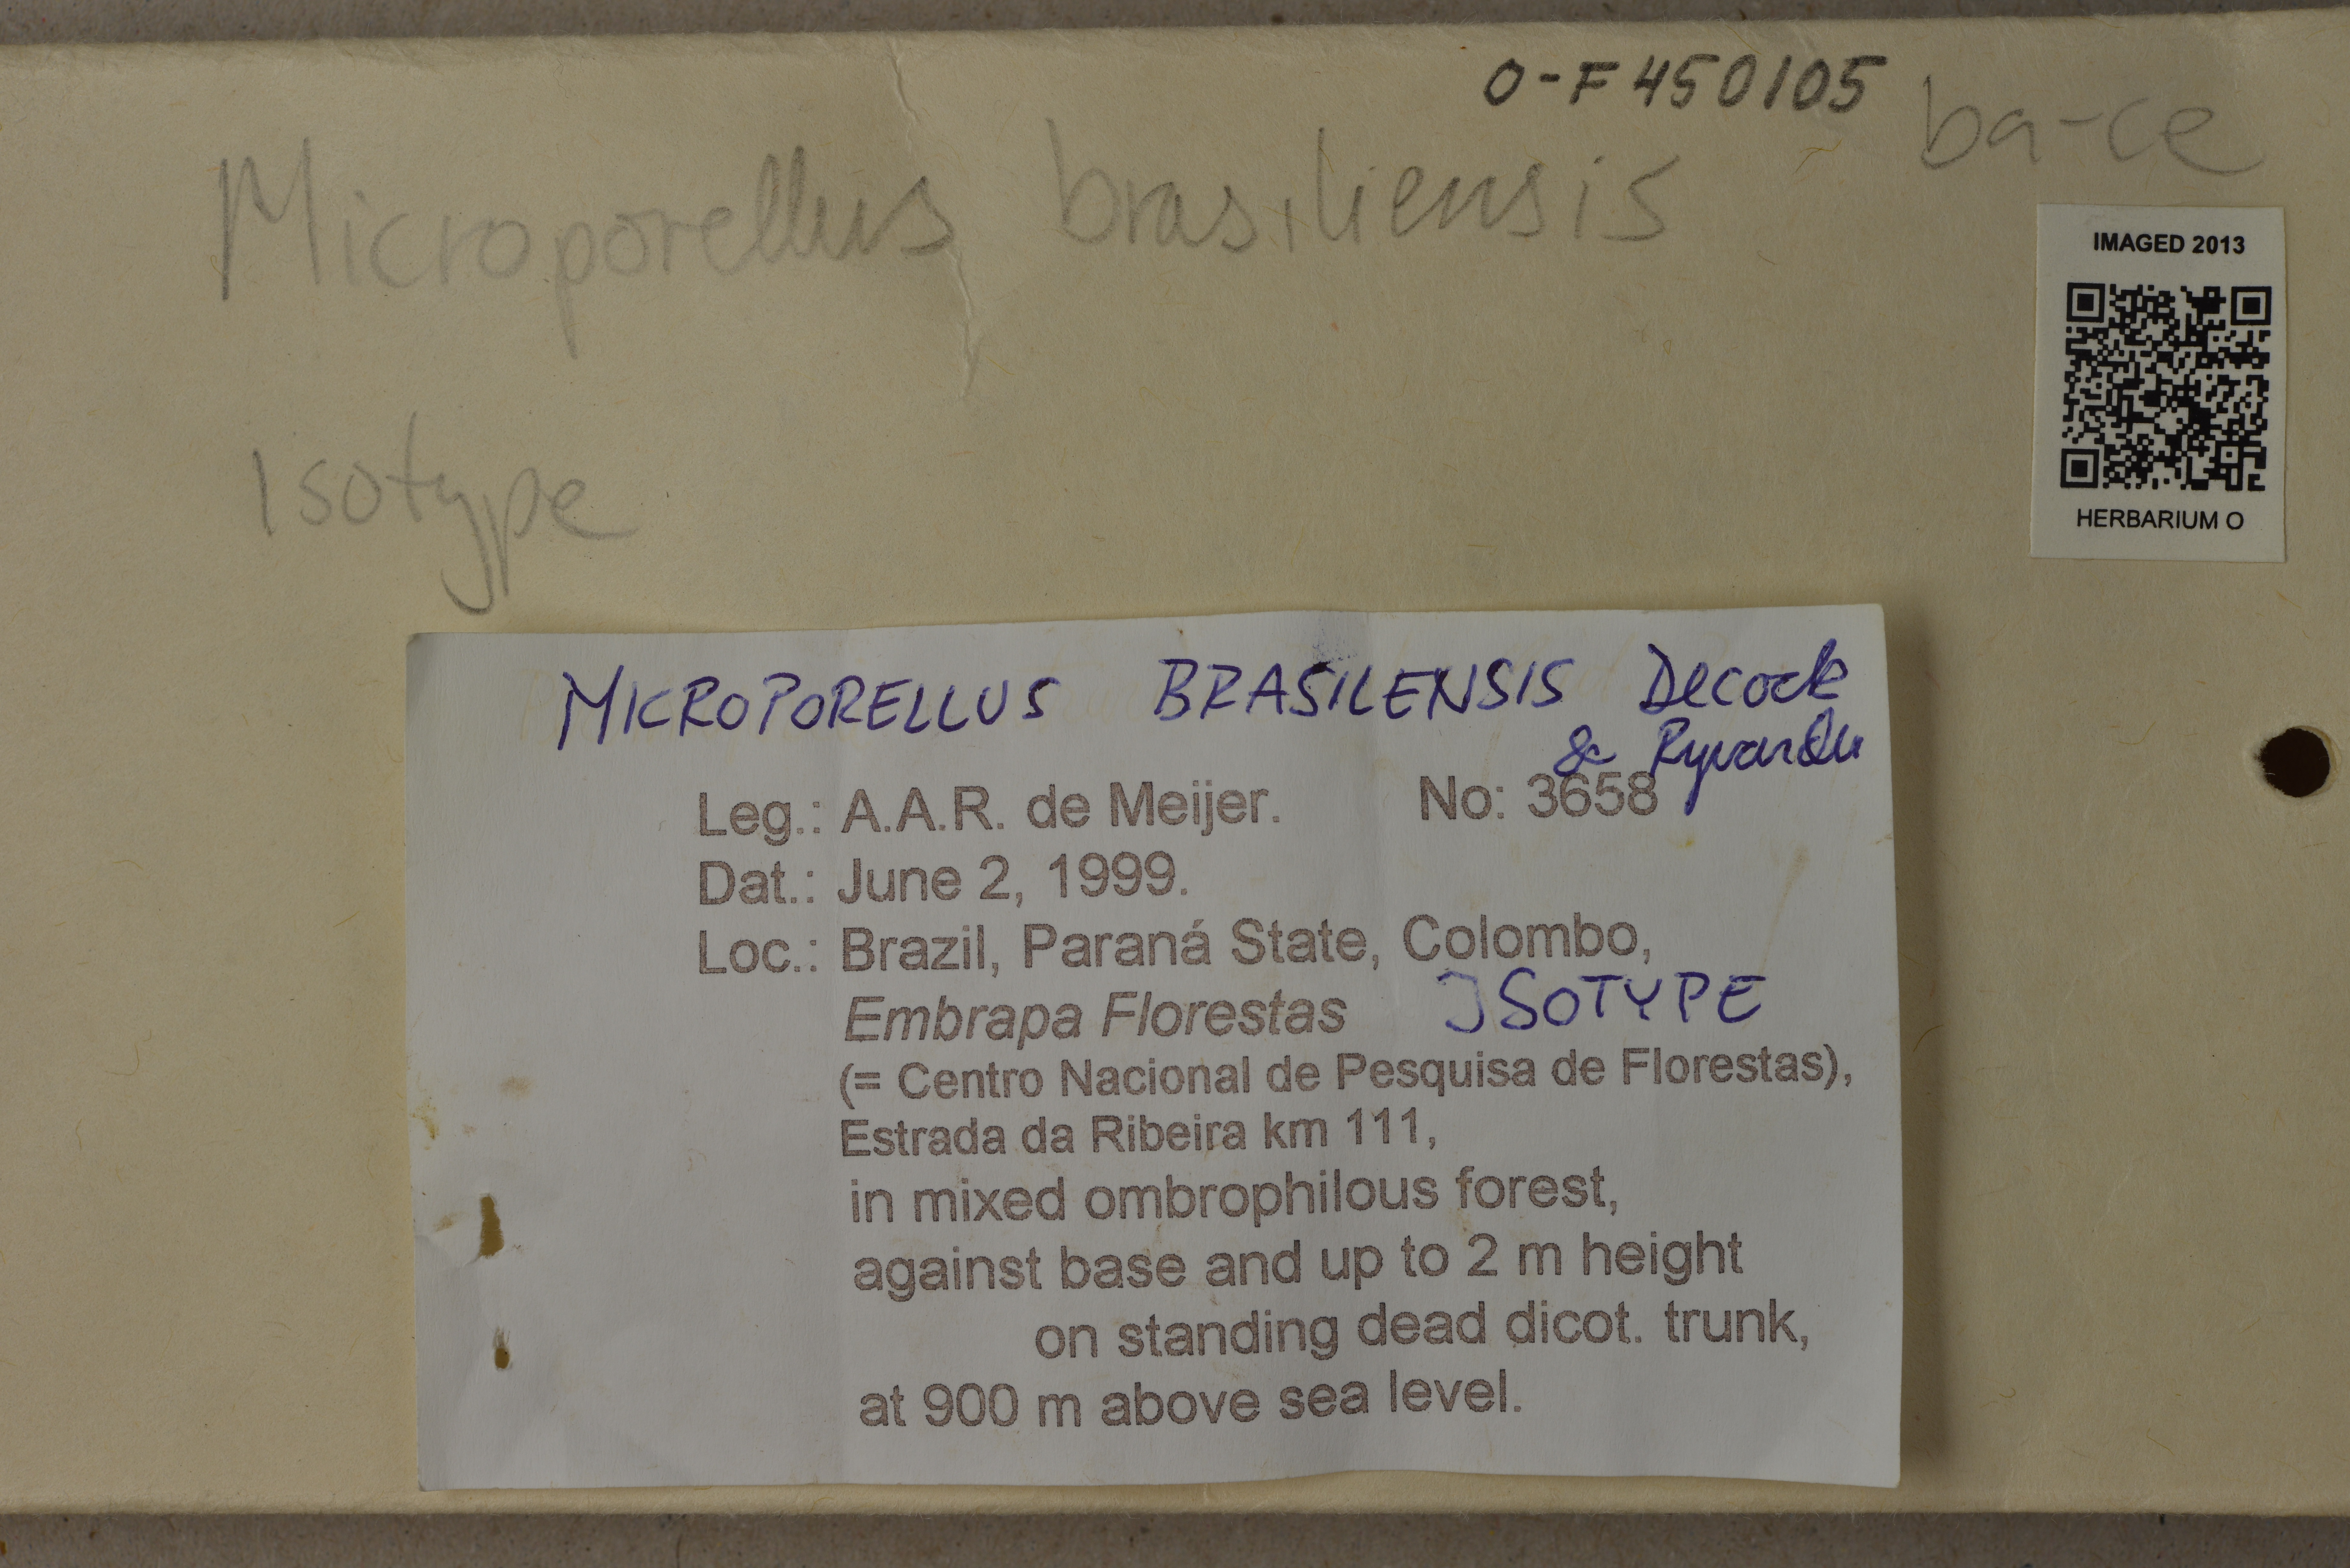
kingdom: Fungi
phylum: Basidiomycota
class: Agaricomycetes
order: Polyporales
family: Polyporaceae
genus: Microporellus
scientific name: Microporellus brasiliensis
